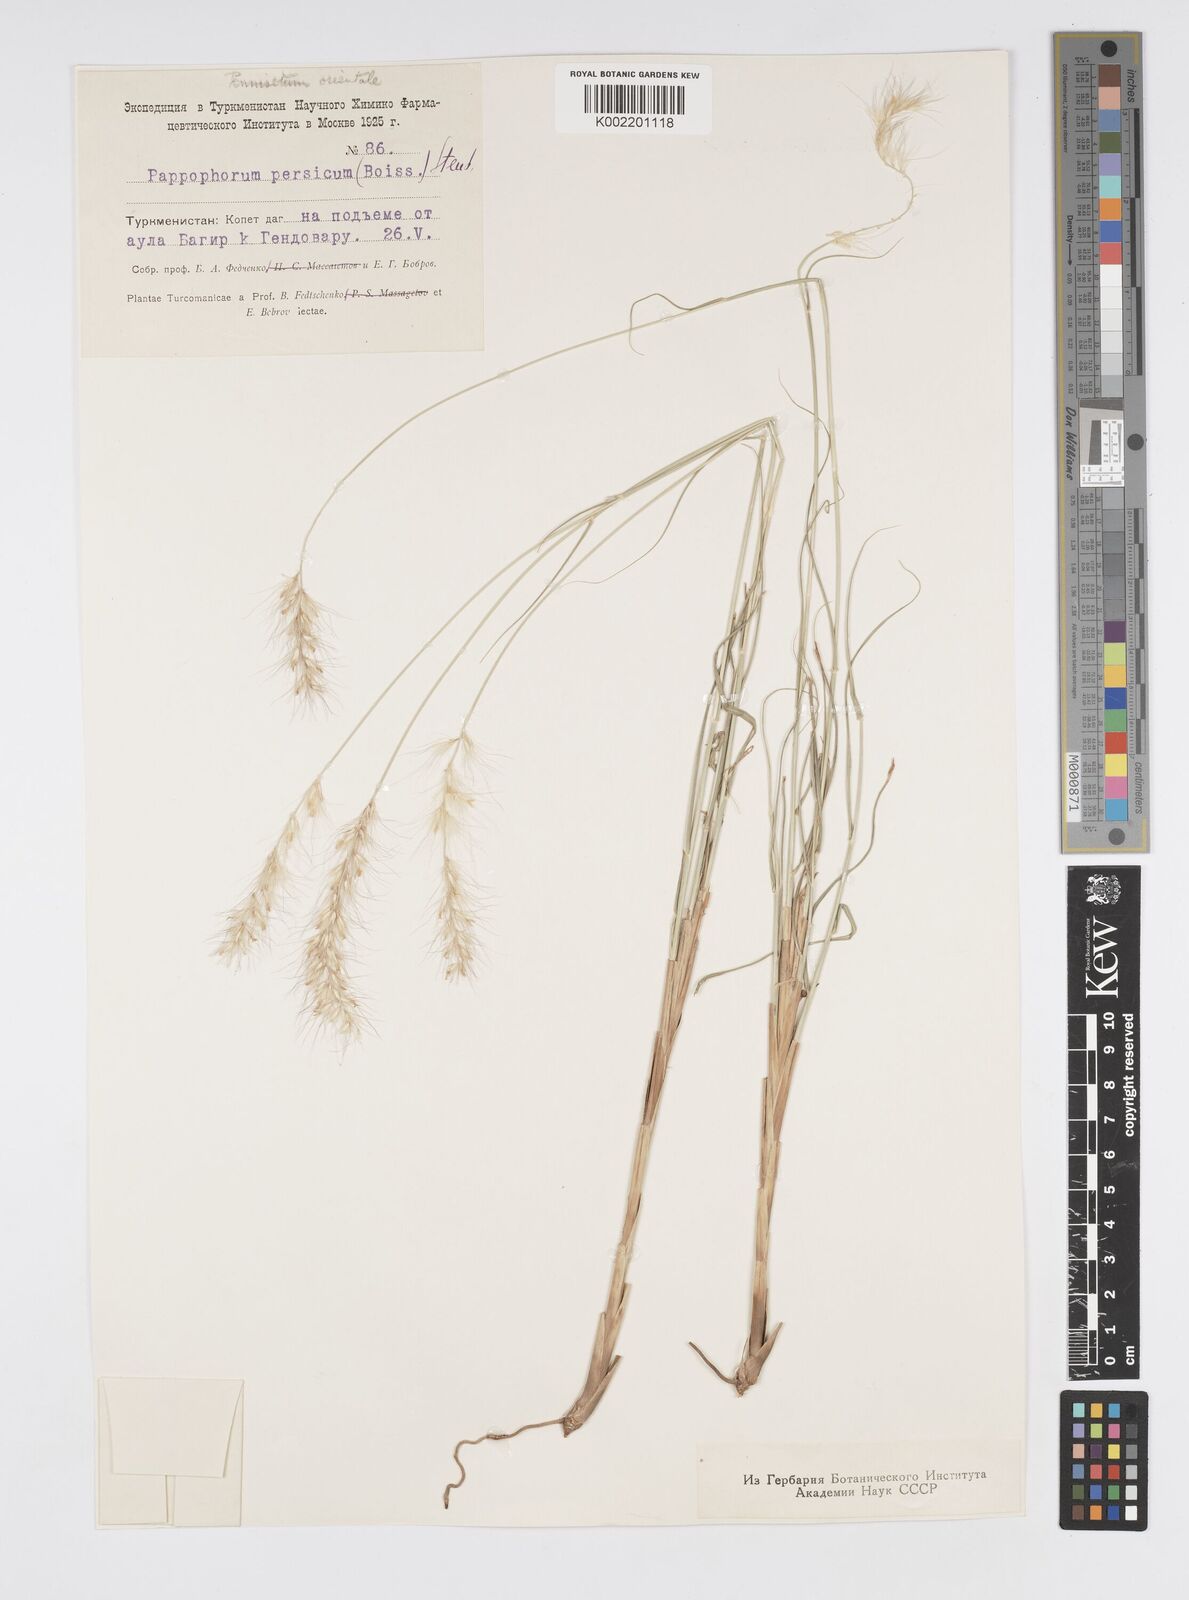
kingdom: Plantae
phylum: Tracheophyta
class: Liliopsida
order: Poales
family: Poaceae
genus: Cenchrus
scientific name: Cenchrus orientalis
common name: Oriental fountain grass
